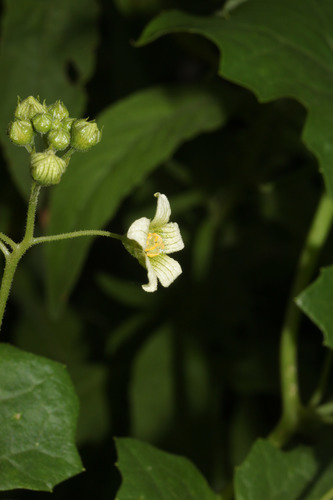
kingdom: Plantae
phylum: Tracheophyta
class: Magnoliopsida
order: Cucurbitales
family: Cucurbitaceae
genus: Bryonia
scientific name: Bryonia cretica
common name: Cretan bryony
